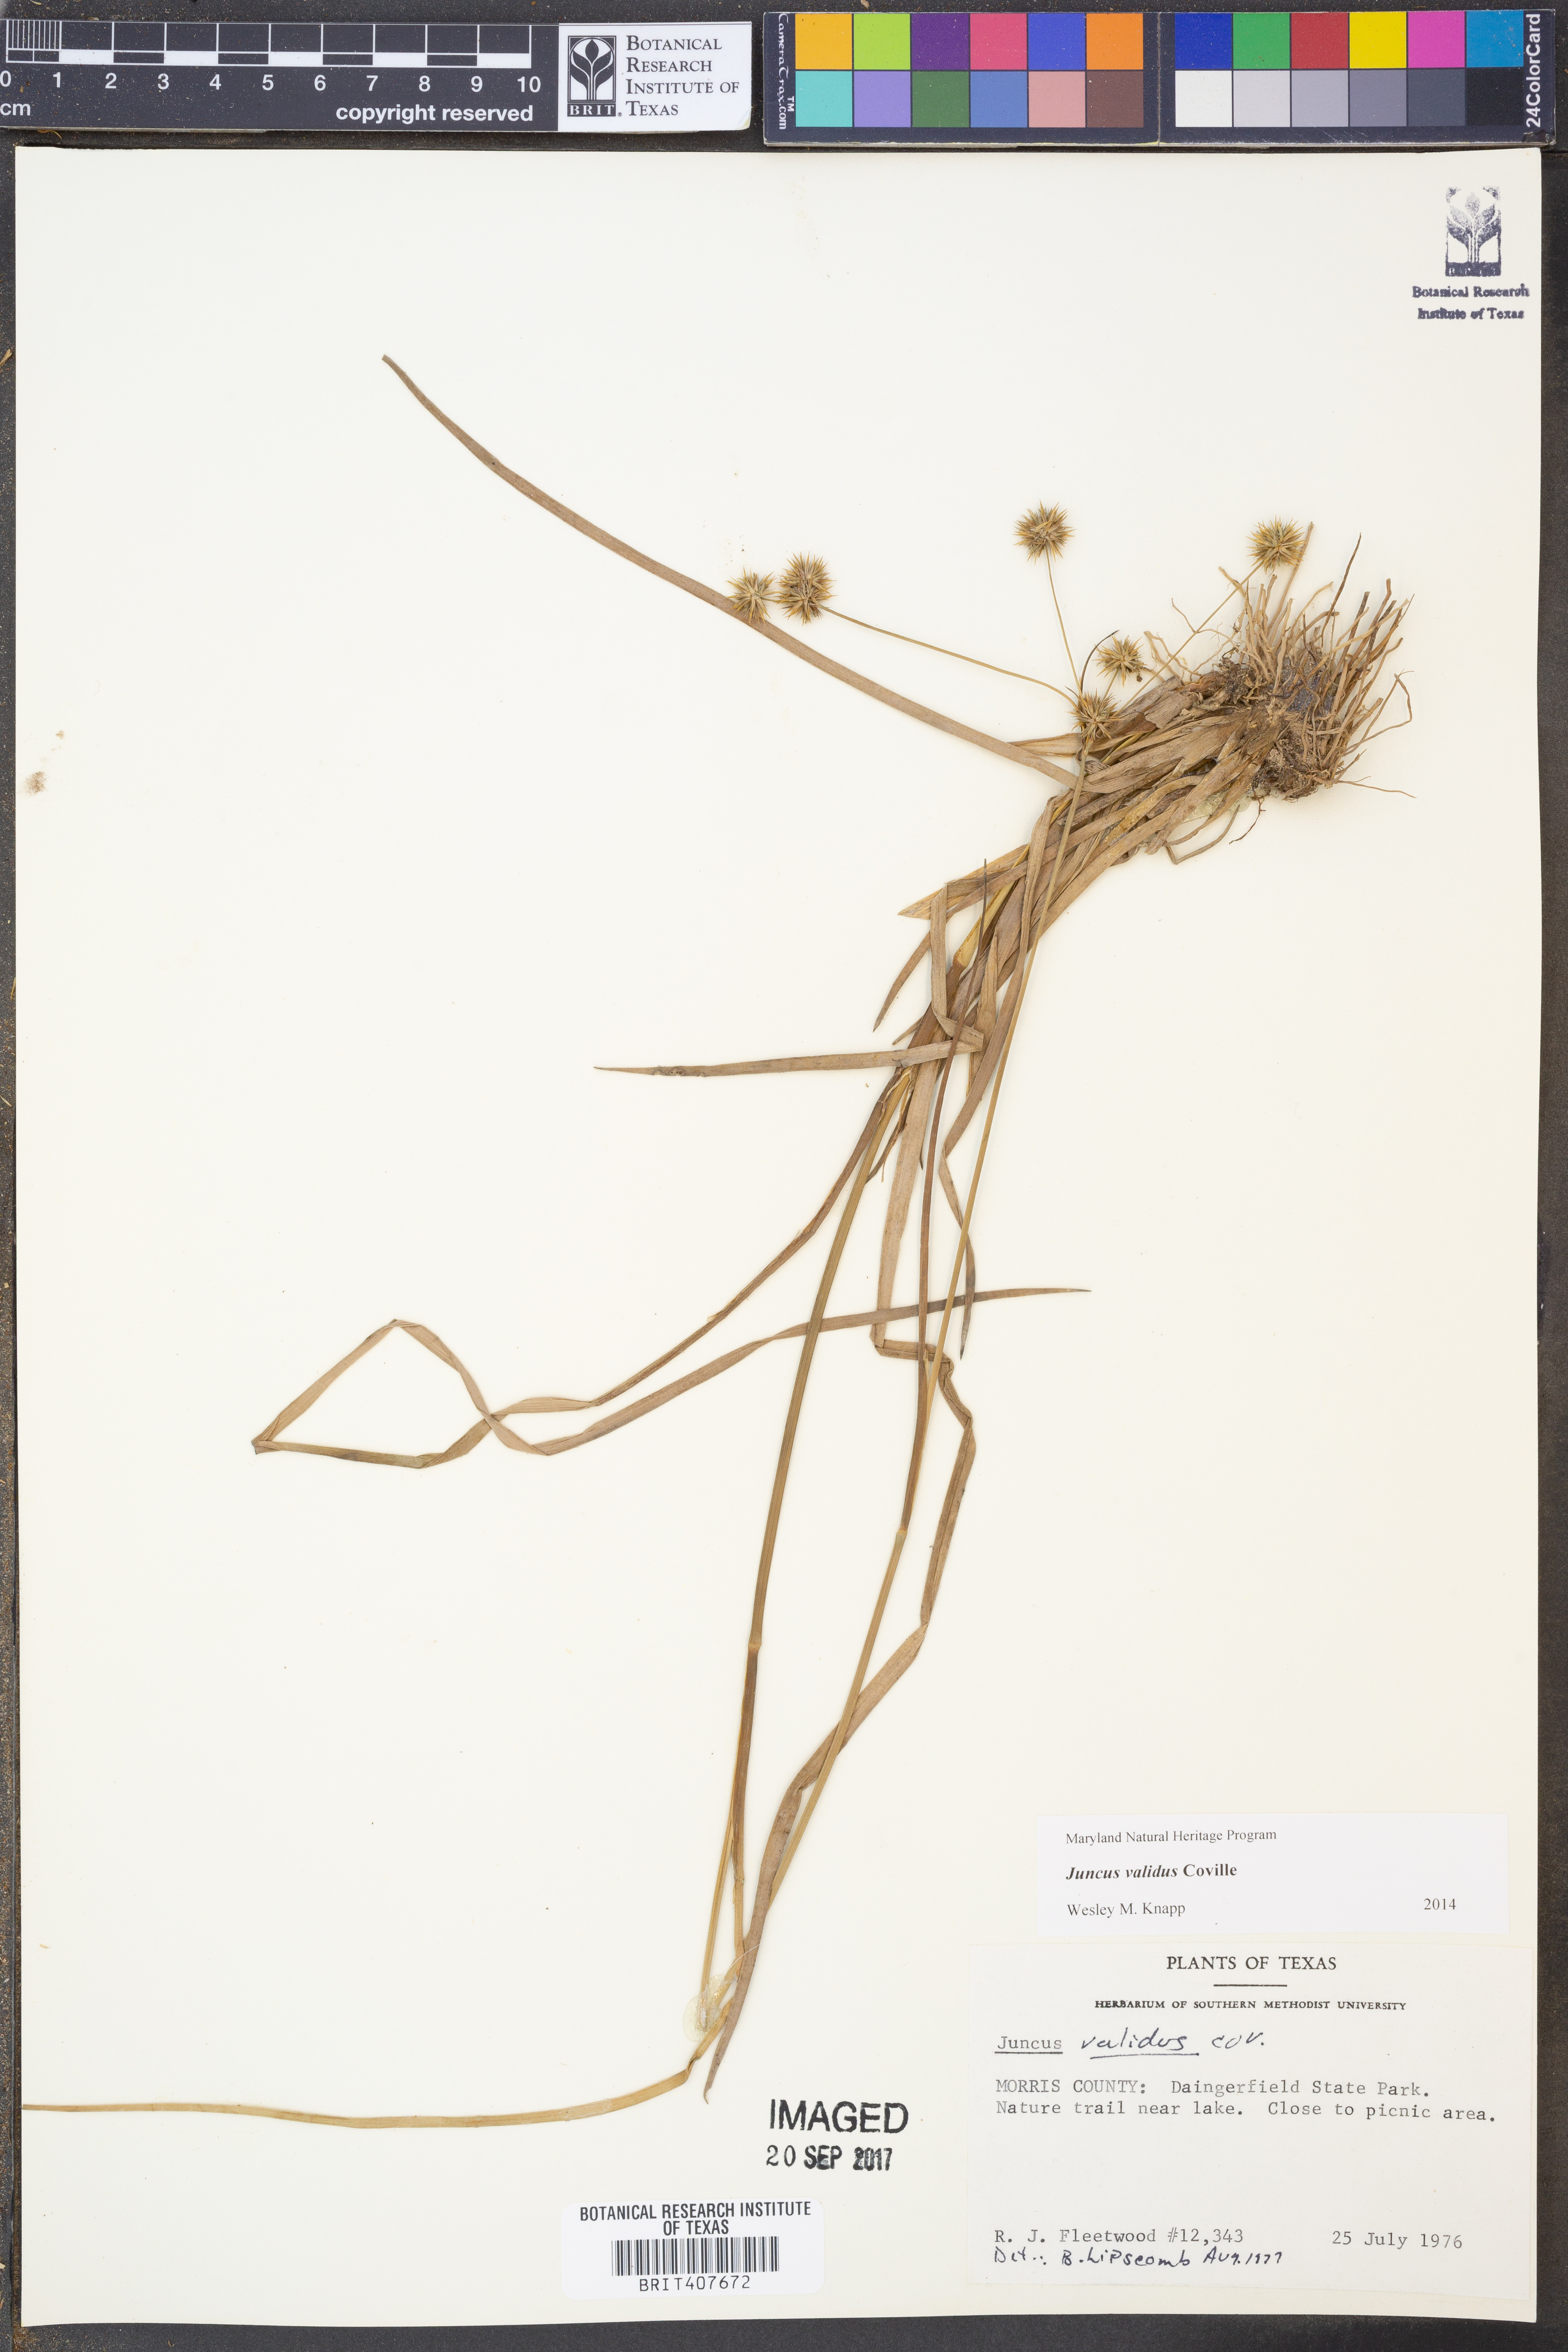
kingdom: Plantae
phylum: Tracheophyta
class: Liliopsida
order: Poales
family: Juncaceae
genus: Juncus
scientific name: Juncus validus
